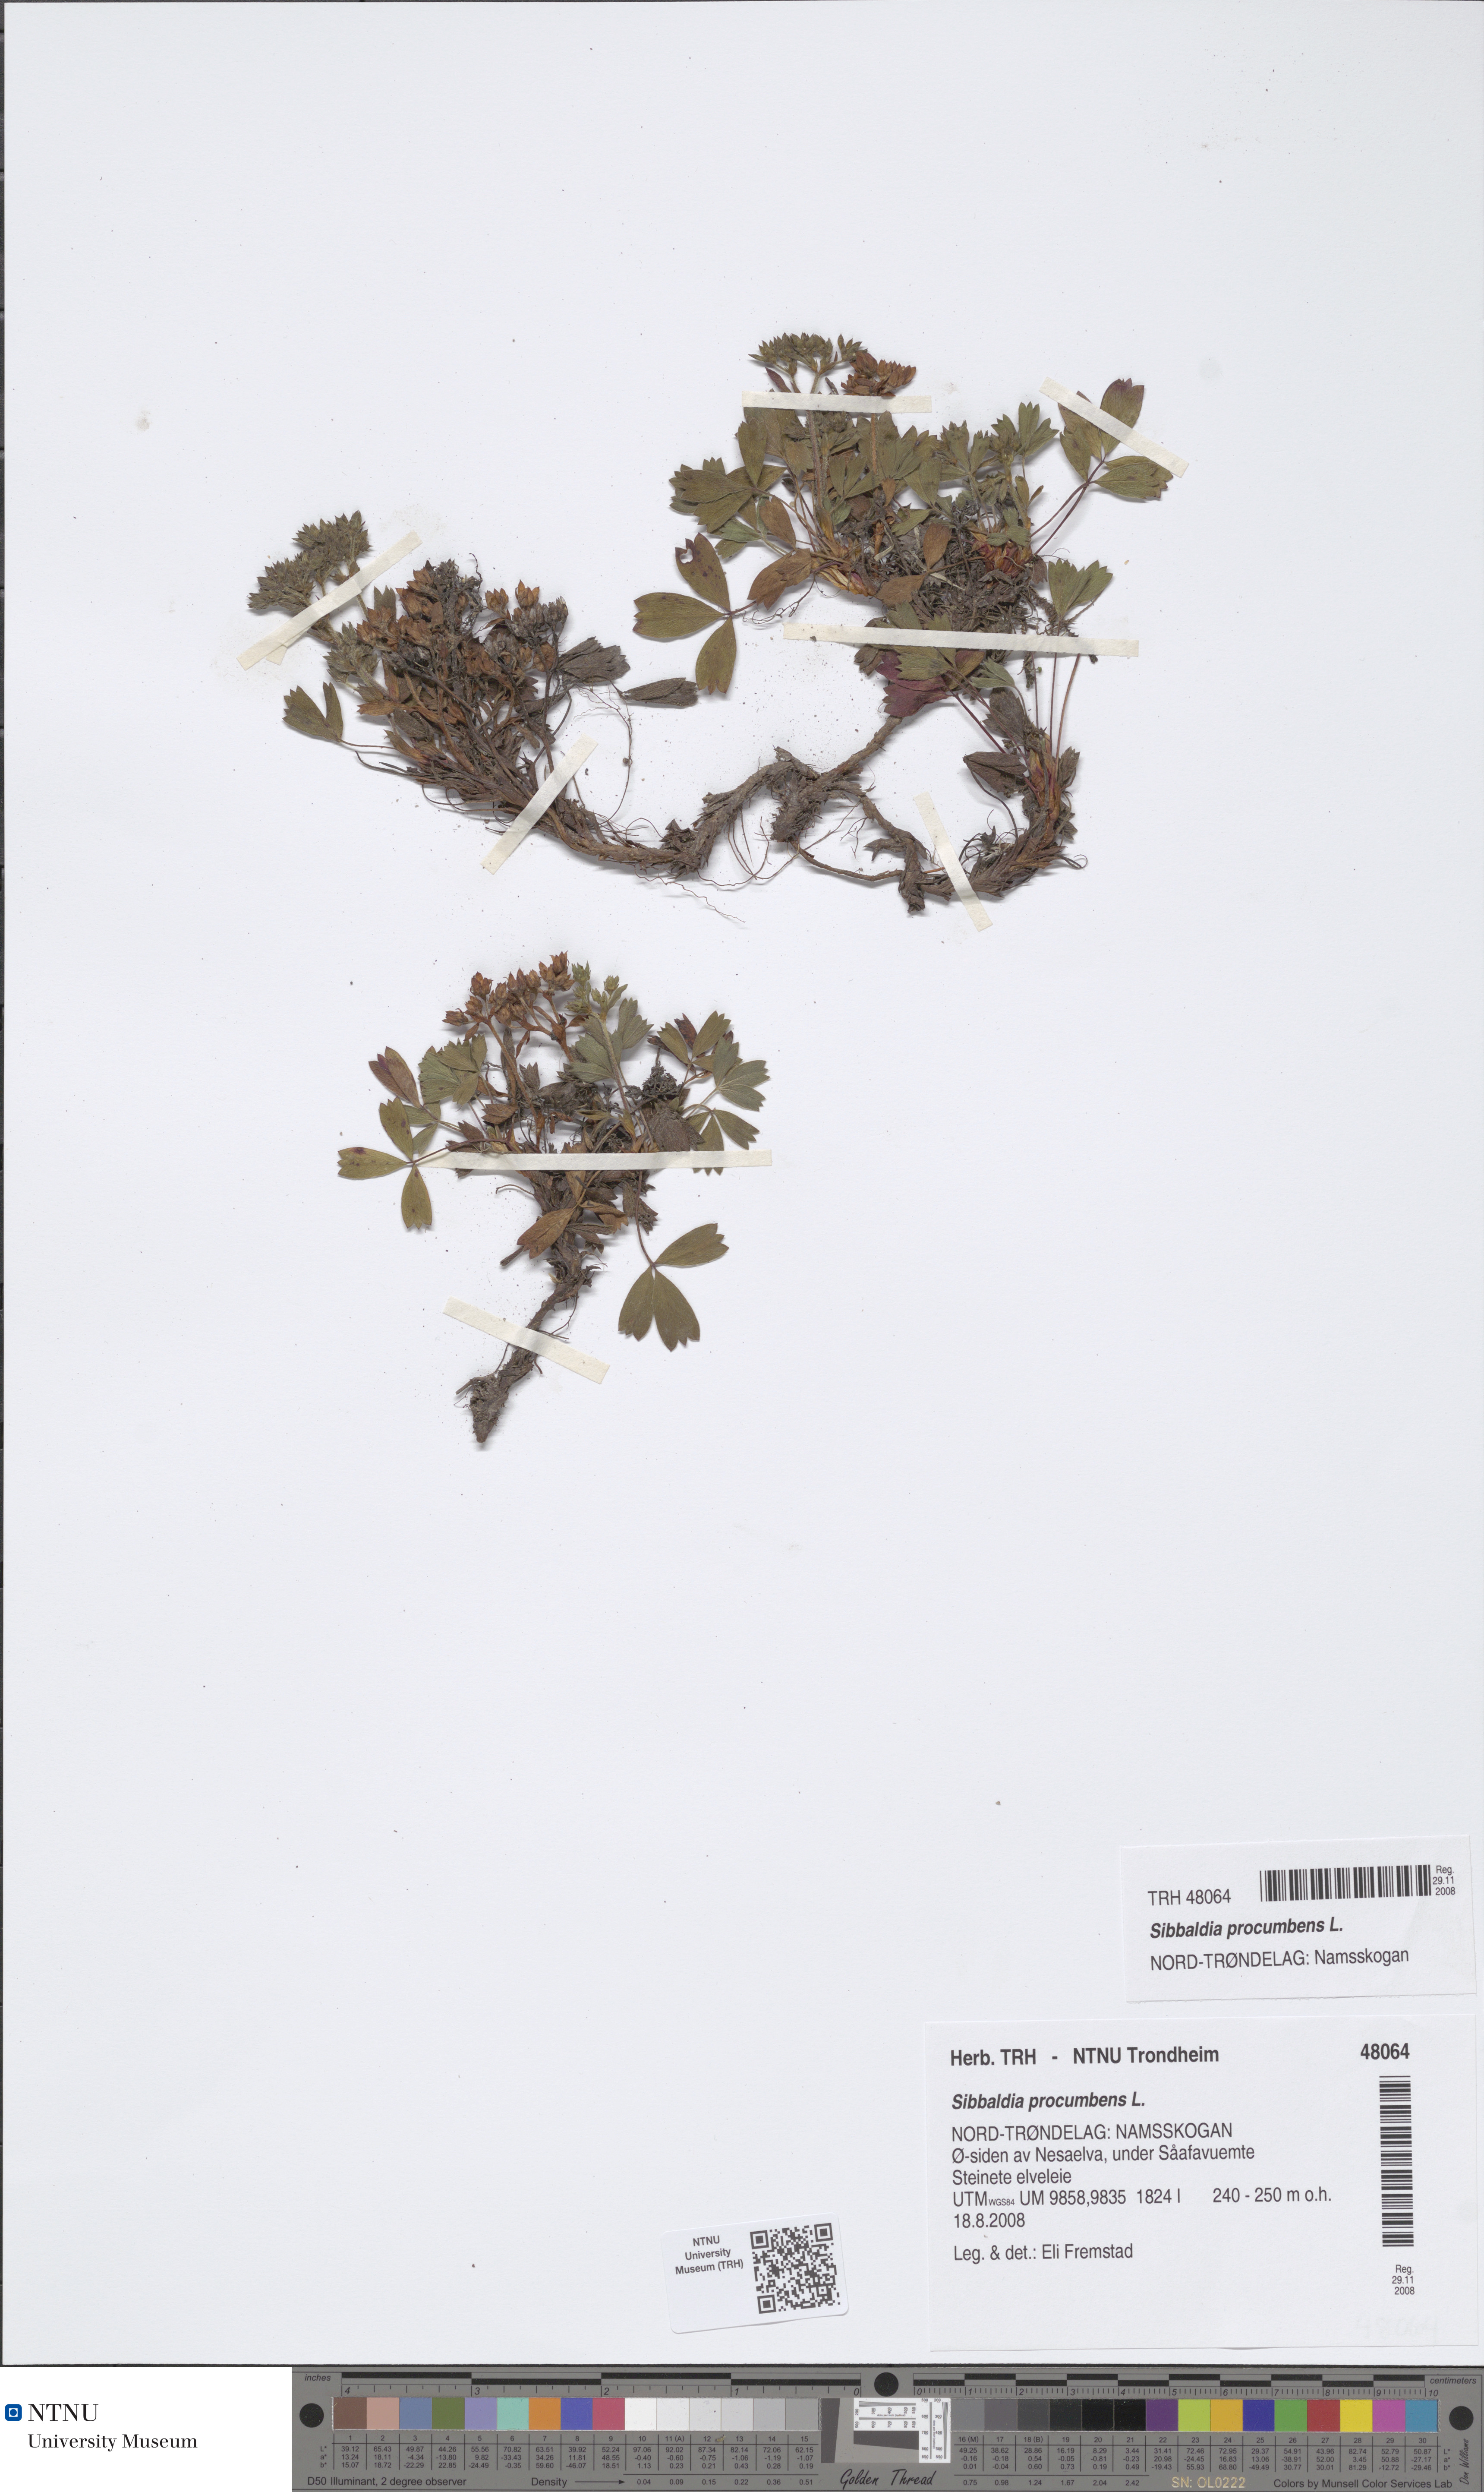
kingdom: Plantae
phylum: Tracheophyta
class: Magnoliopsida
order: Rosales
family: Rosaceae
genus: Sibbaldia
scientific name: Sibbaldia procumbens
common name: Creeping sibbaldia
